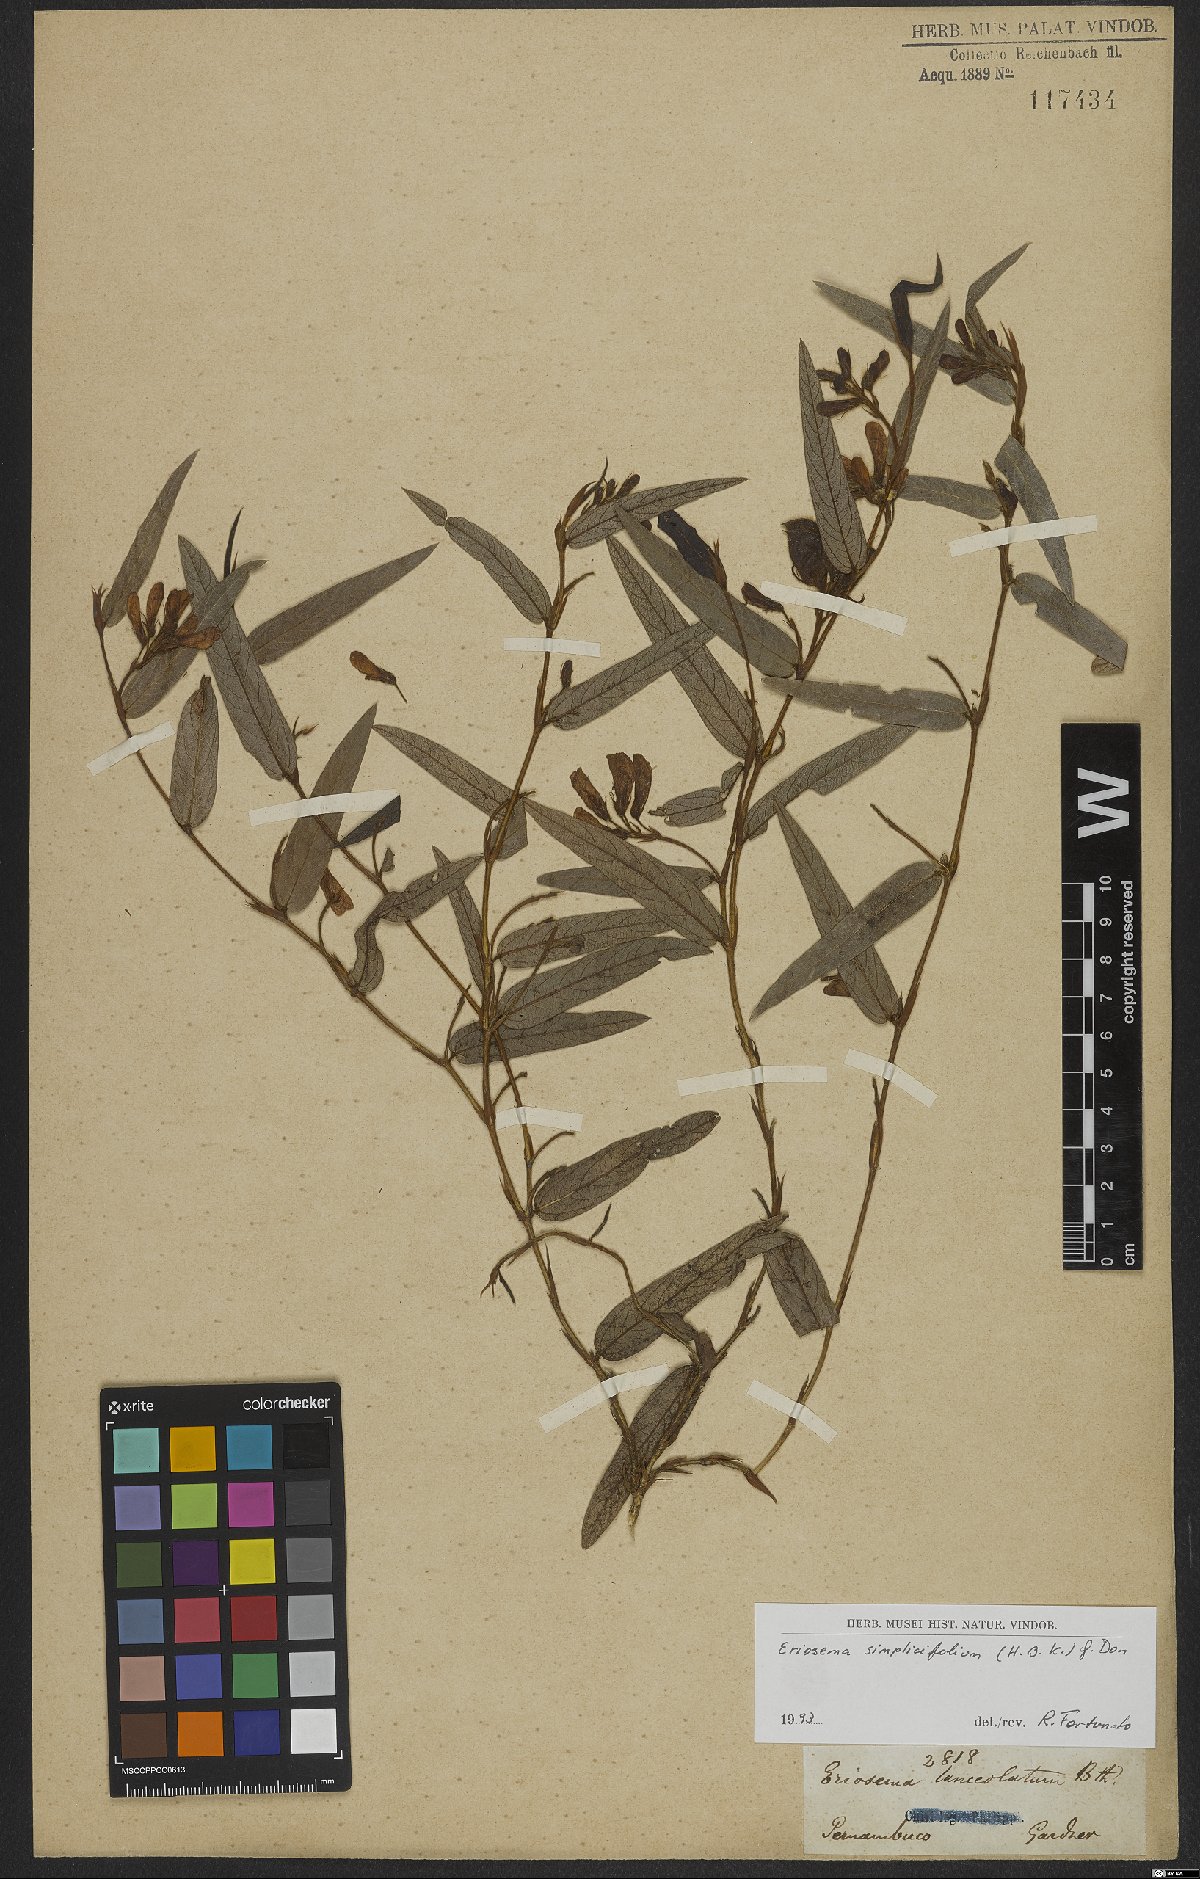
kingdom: Plantae
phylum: Tracheophyta
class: Magnoliopsida
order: Fabales
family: Fabaceae
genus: Eriosema
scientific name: Eriosema simplicifolium
